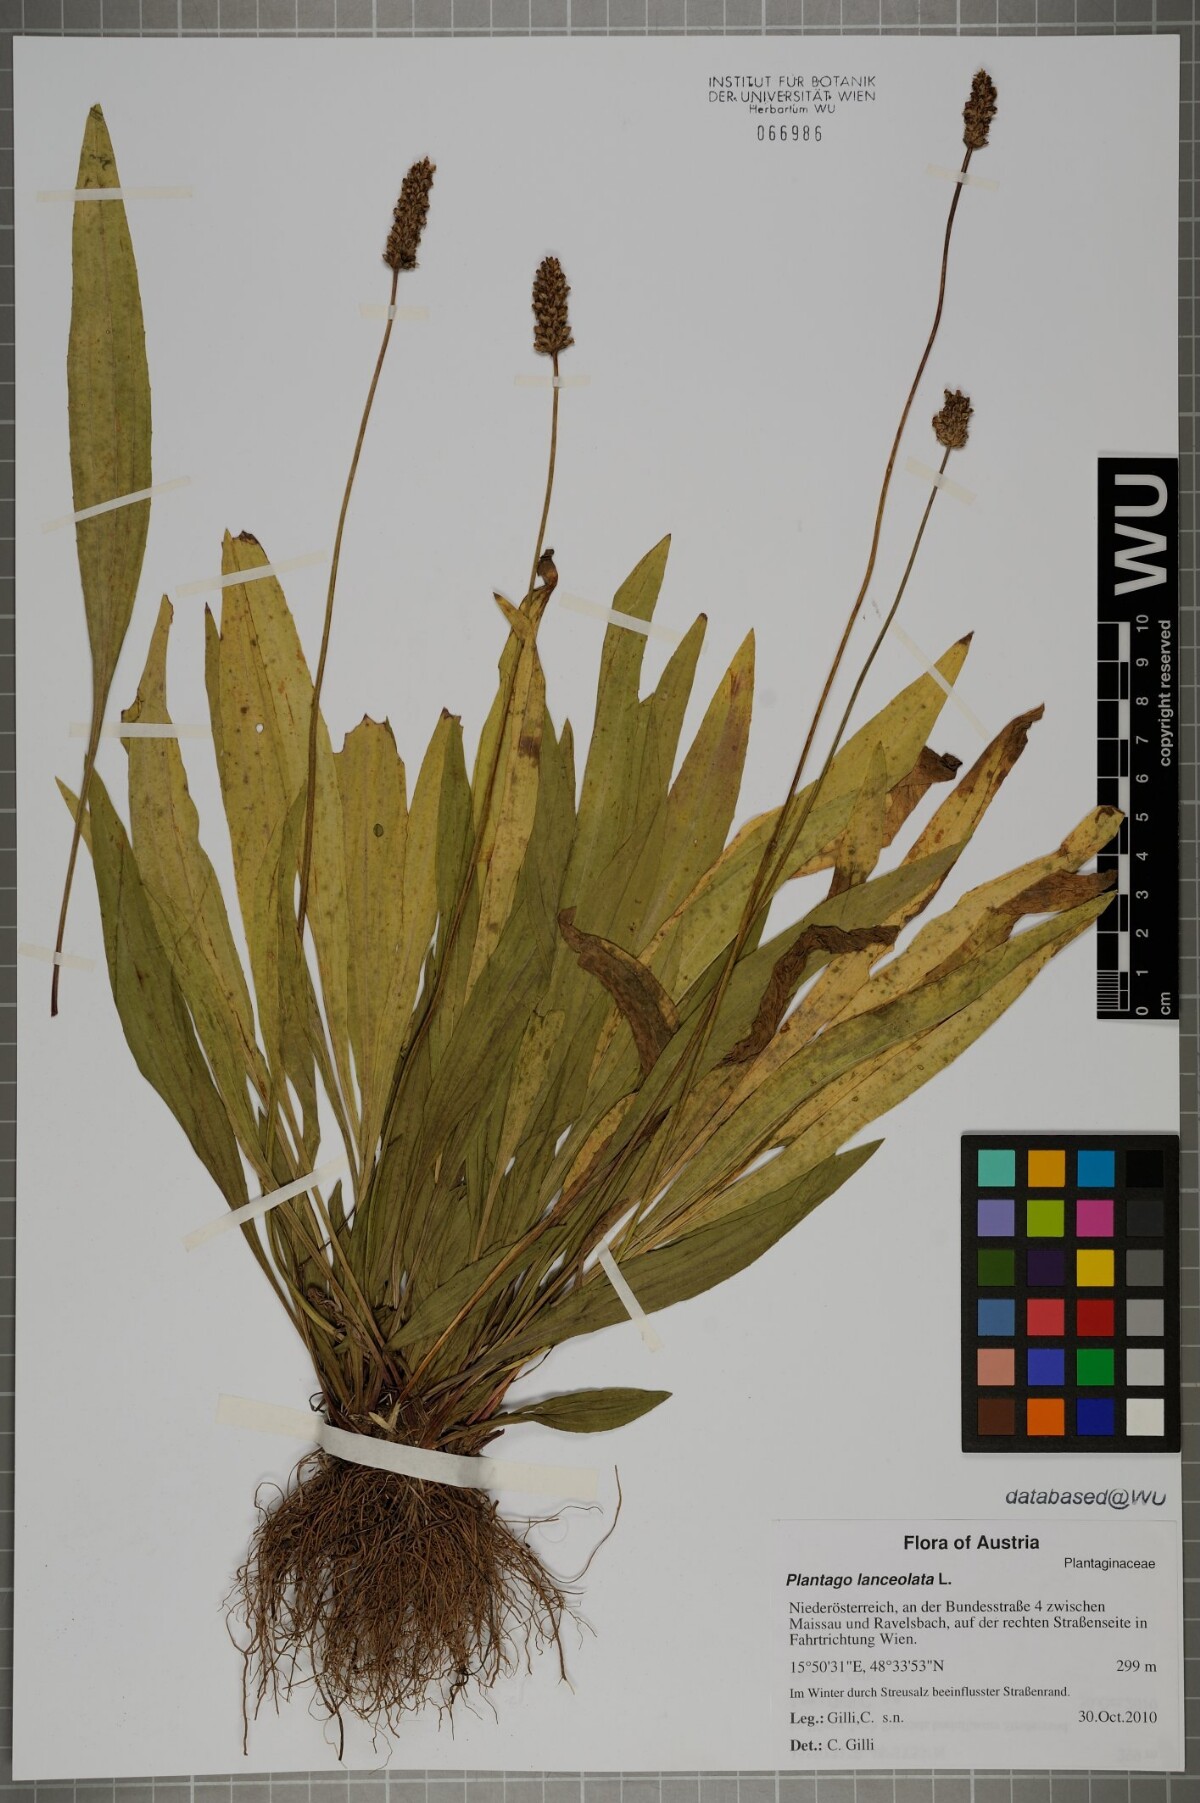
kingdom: Plantae
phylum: Tracheophyta
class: Magnoliopsida
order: Lamiales
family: Plantaginaceae
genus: Plantago
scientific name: Plantago lanceolata
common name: Ribwort plantain
